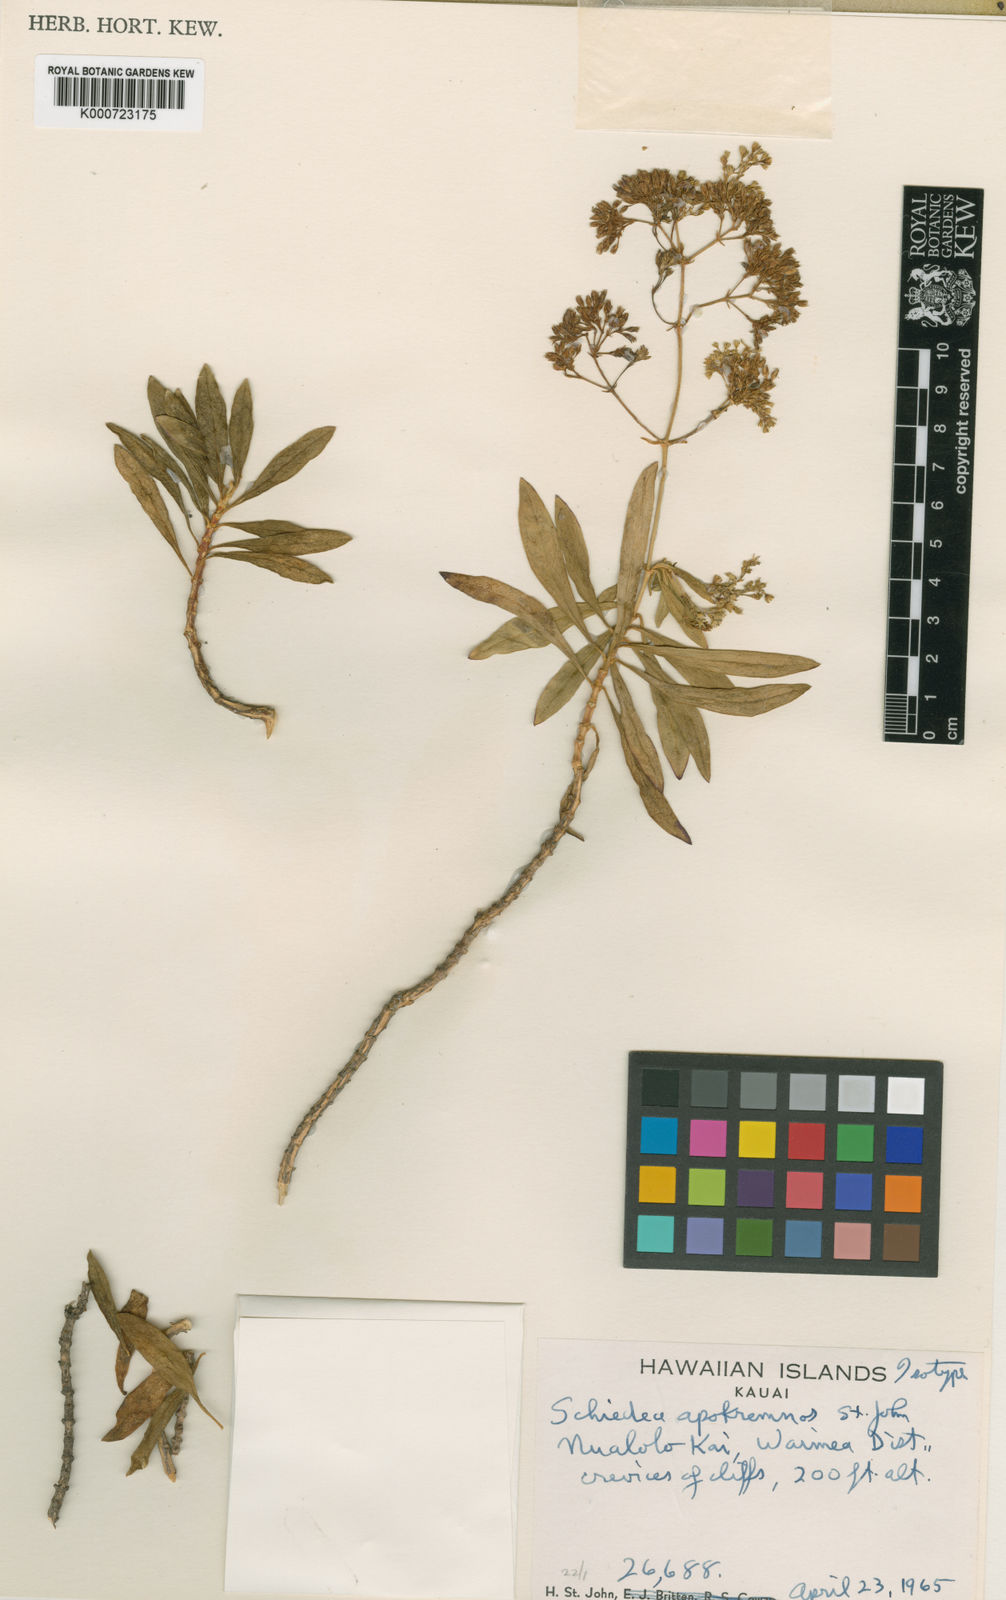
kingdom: Plantae
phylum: Tracheophyta
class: Magnoliopsida
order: Caryophyllales
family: Caryophyllaceae
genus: Schiedea
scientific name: Schiedea apokremnos
